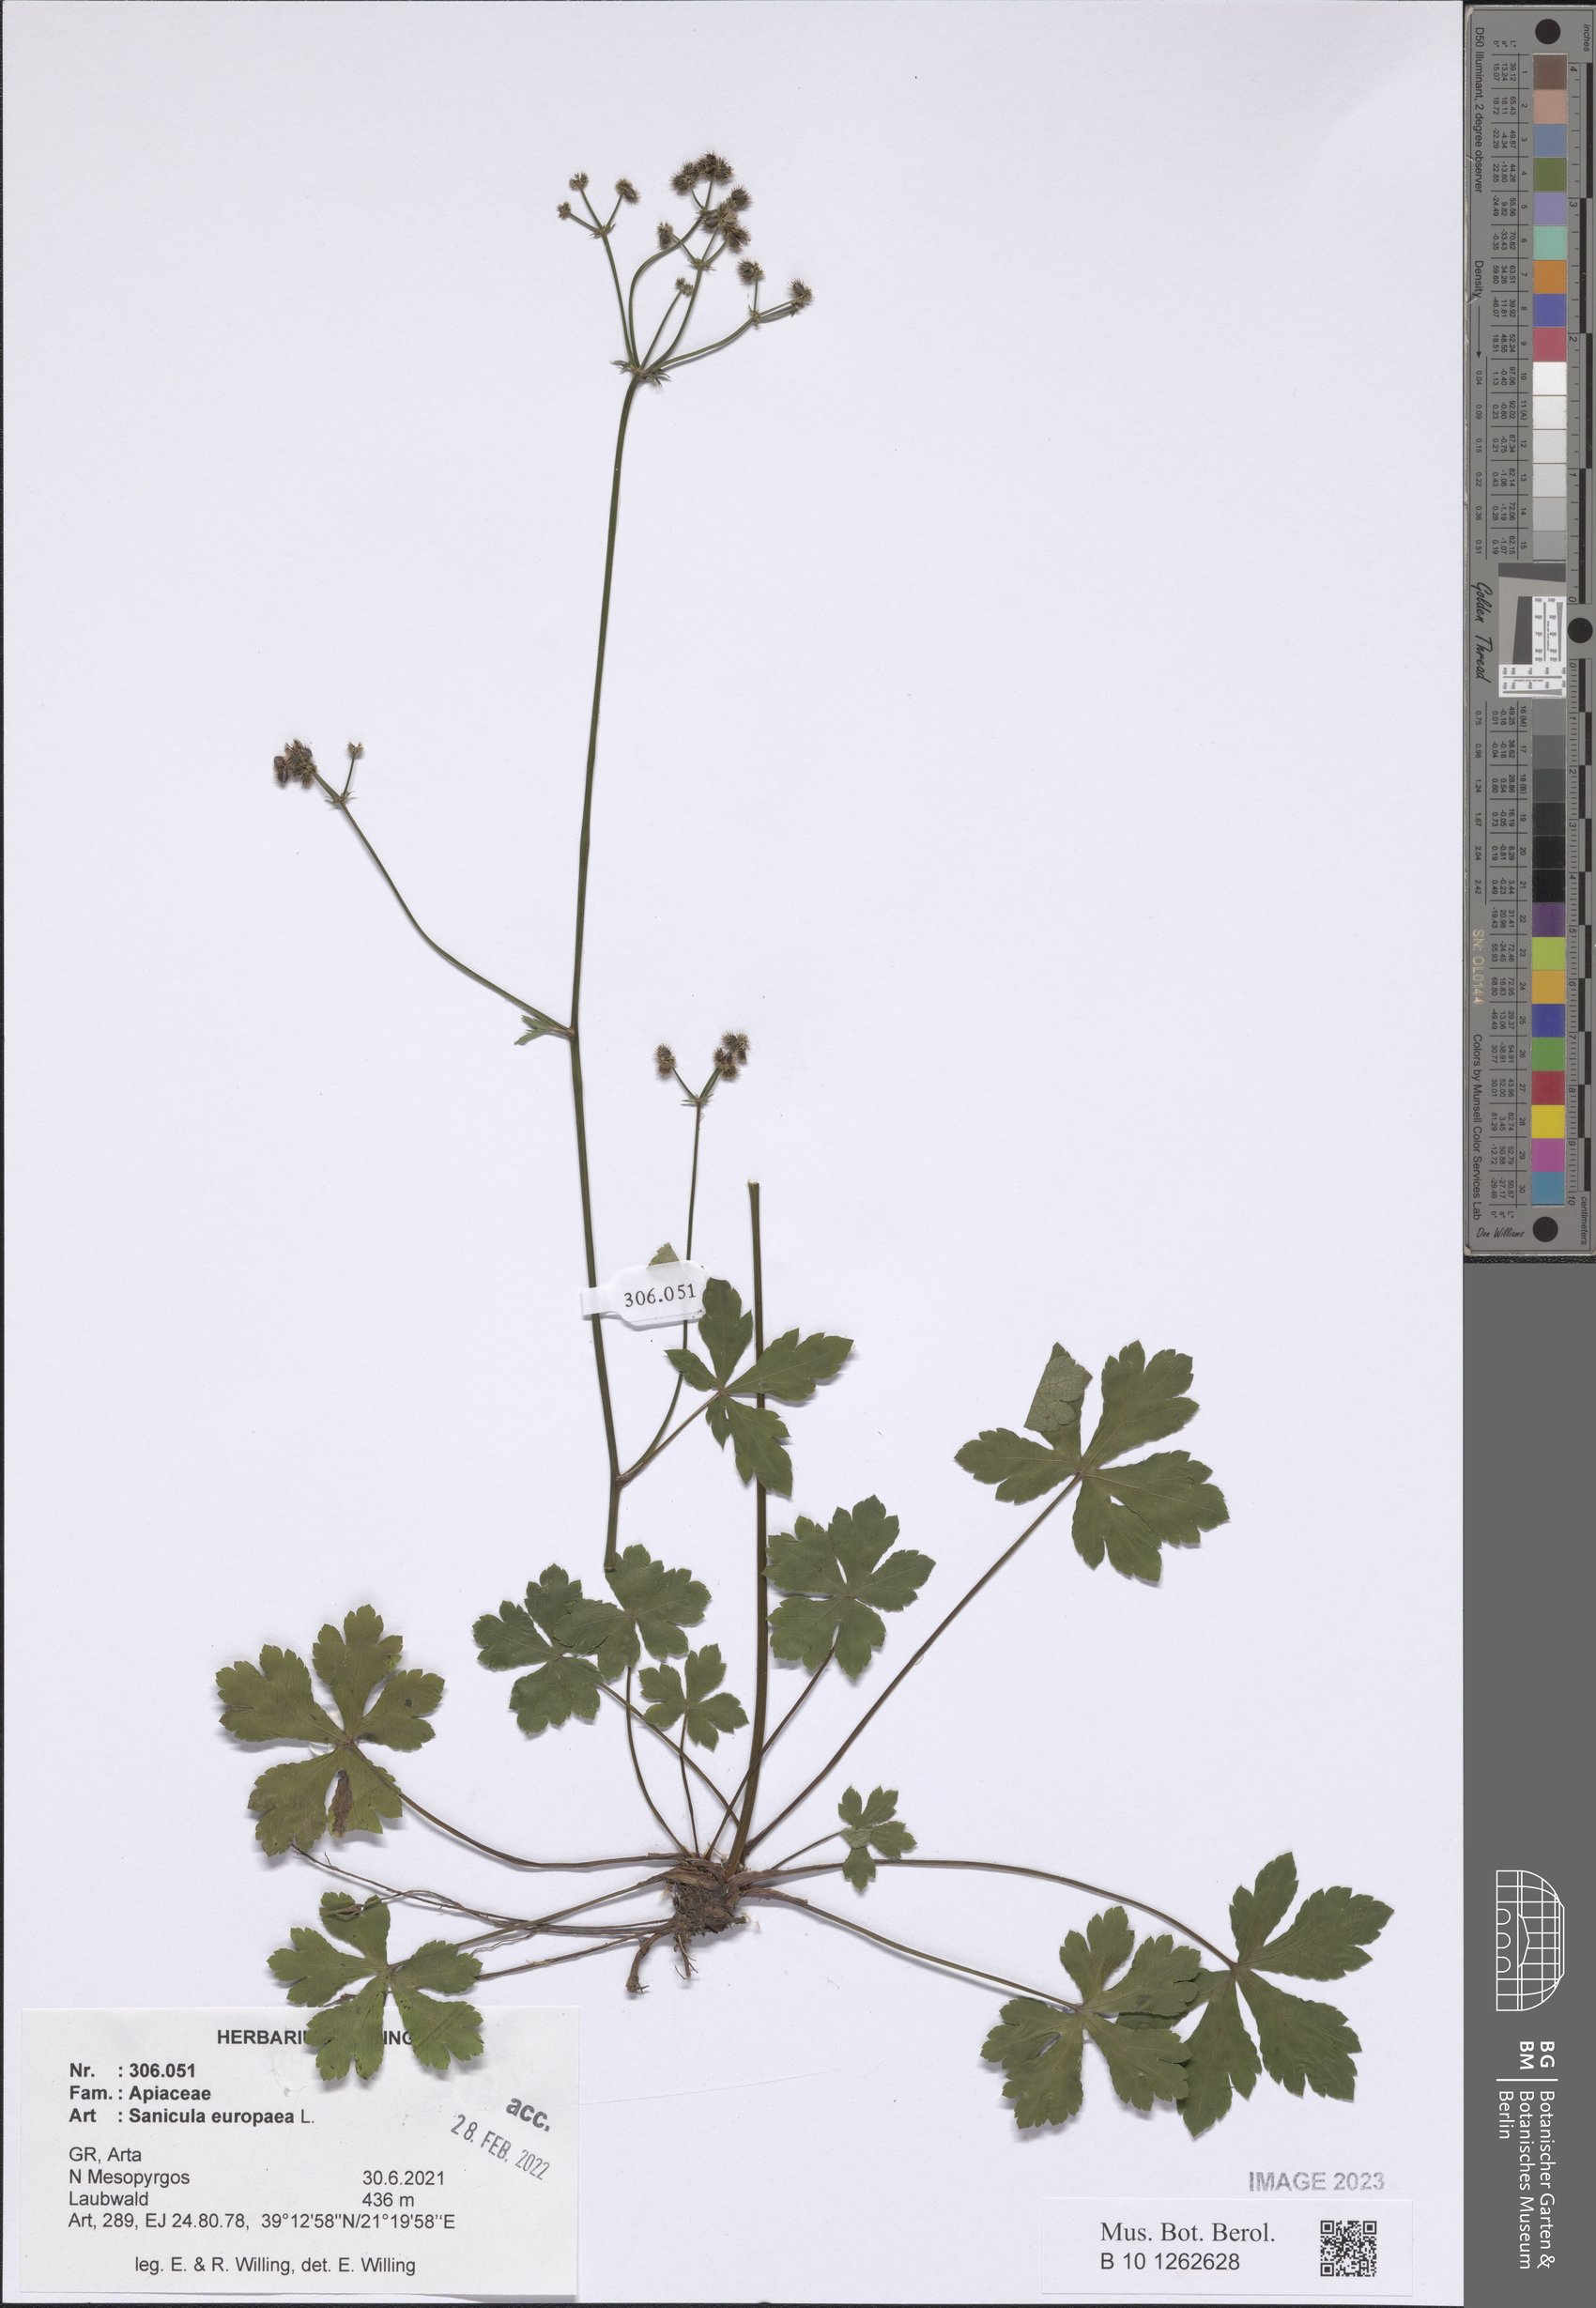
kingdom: Plantae
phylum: Tracheophyta
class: Magnoliopsida
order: Apiales
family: Apiaceae
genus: Sanicula
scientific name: Sanicula europaea
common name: Sanicle
